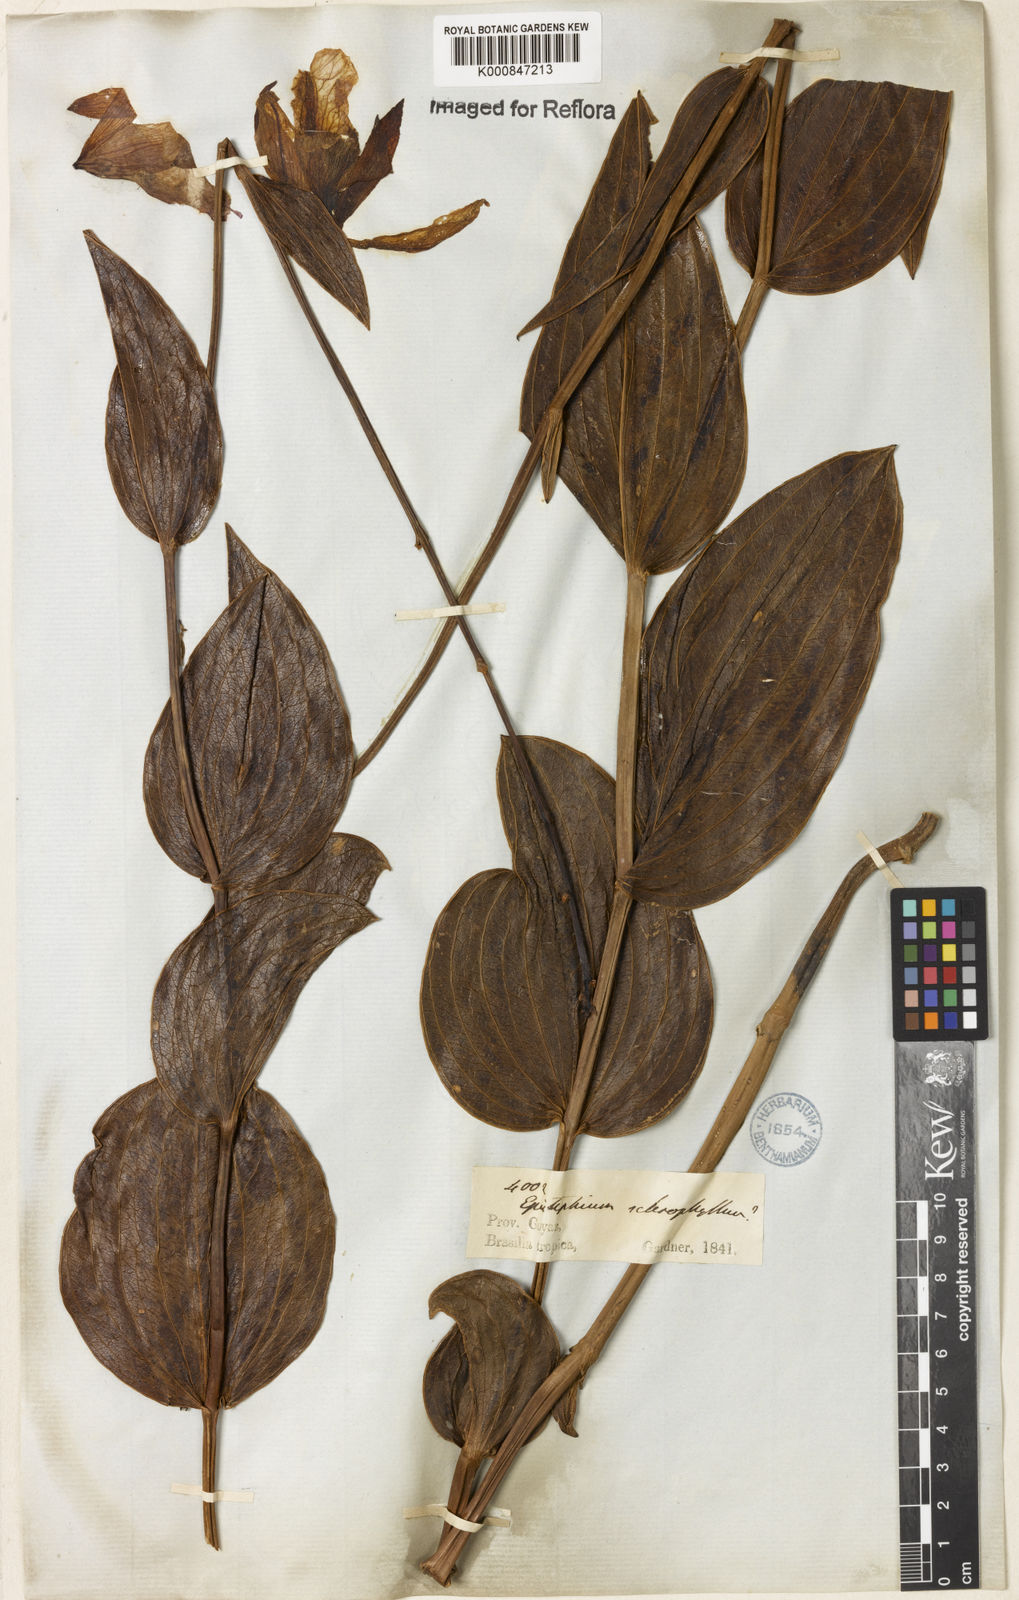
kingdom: Plantae
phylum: Tracheophyta
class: Liliopsida
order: Asparagales
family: Orchidaceae
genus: Epistephium
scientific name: Epistephium sclerophyllum
